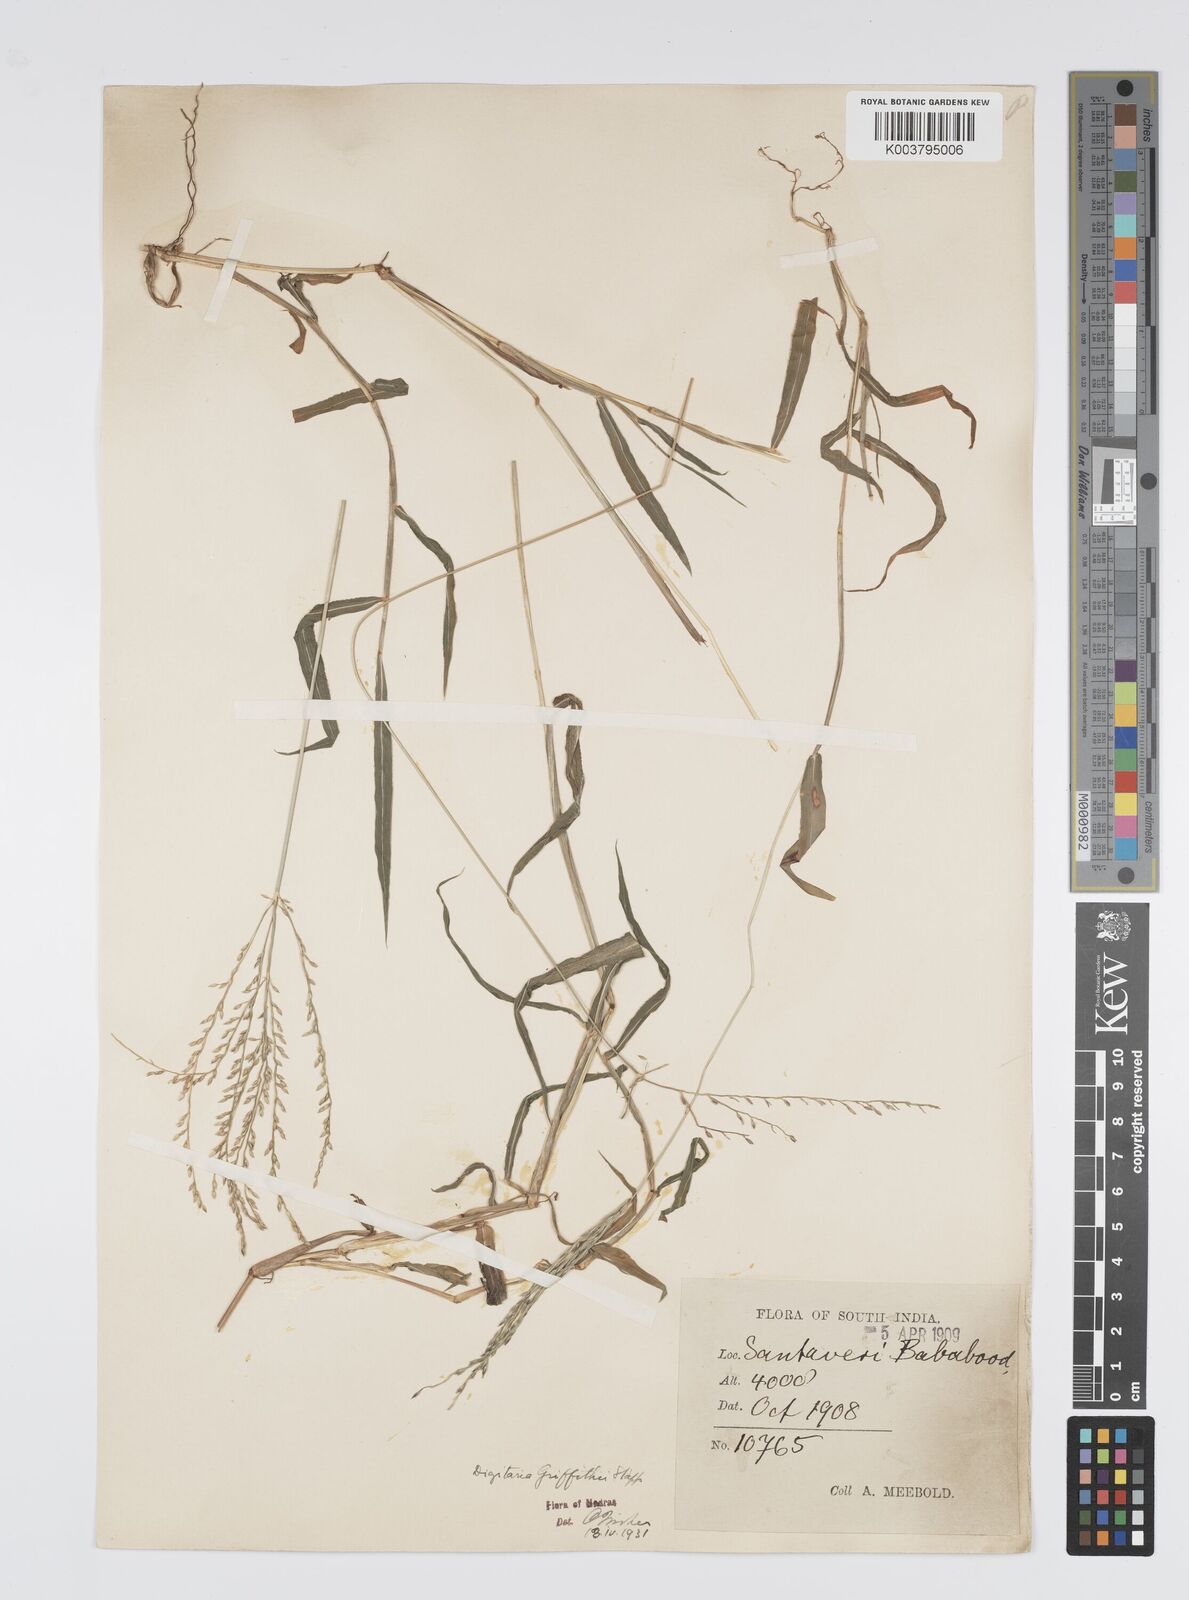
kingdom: Plantae
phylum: Tracheophyta
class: Liliopsida
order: Poales
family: Poaceae
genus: Digitaria
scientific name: Digitaria griffithii
